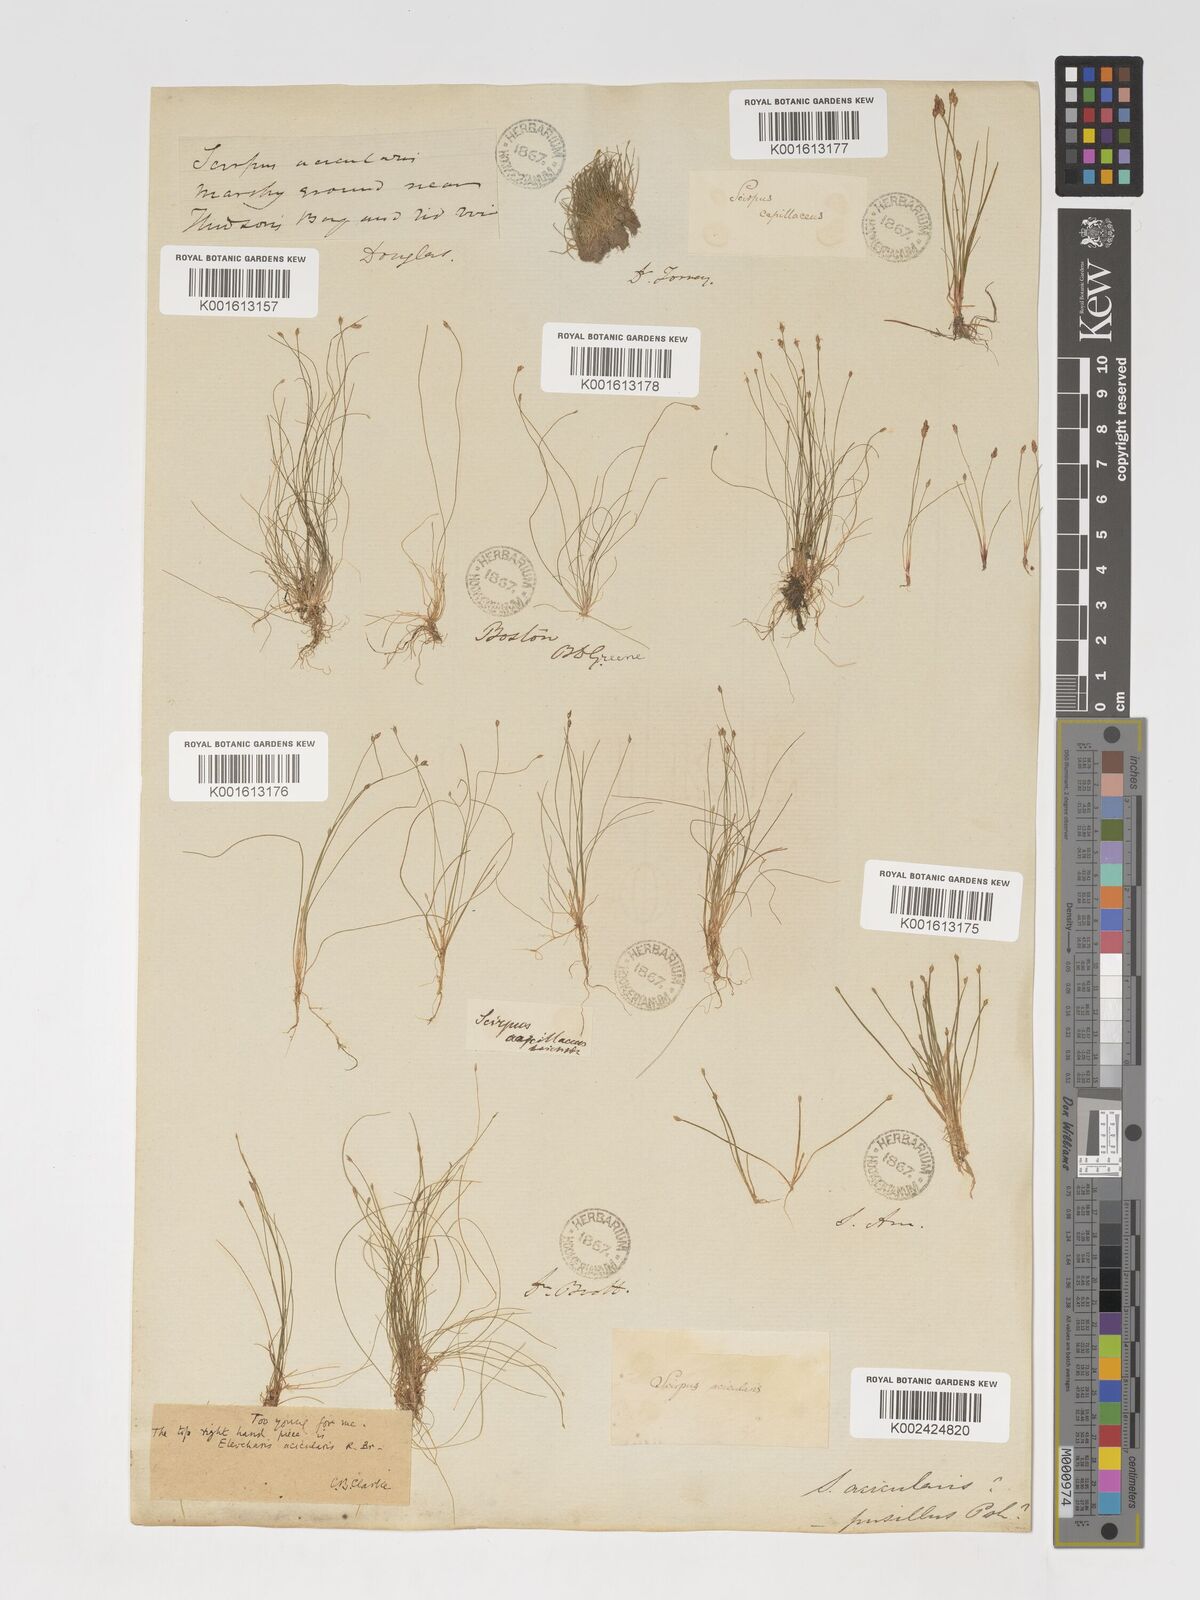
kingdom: Plantae
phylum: Tracheophyta
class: Liliopsida
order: Poales
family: Cyperaceae
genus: Eleocharis
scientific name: Eleocharis acicularis
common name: Needle spike-rush
